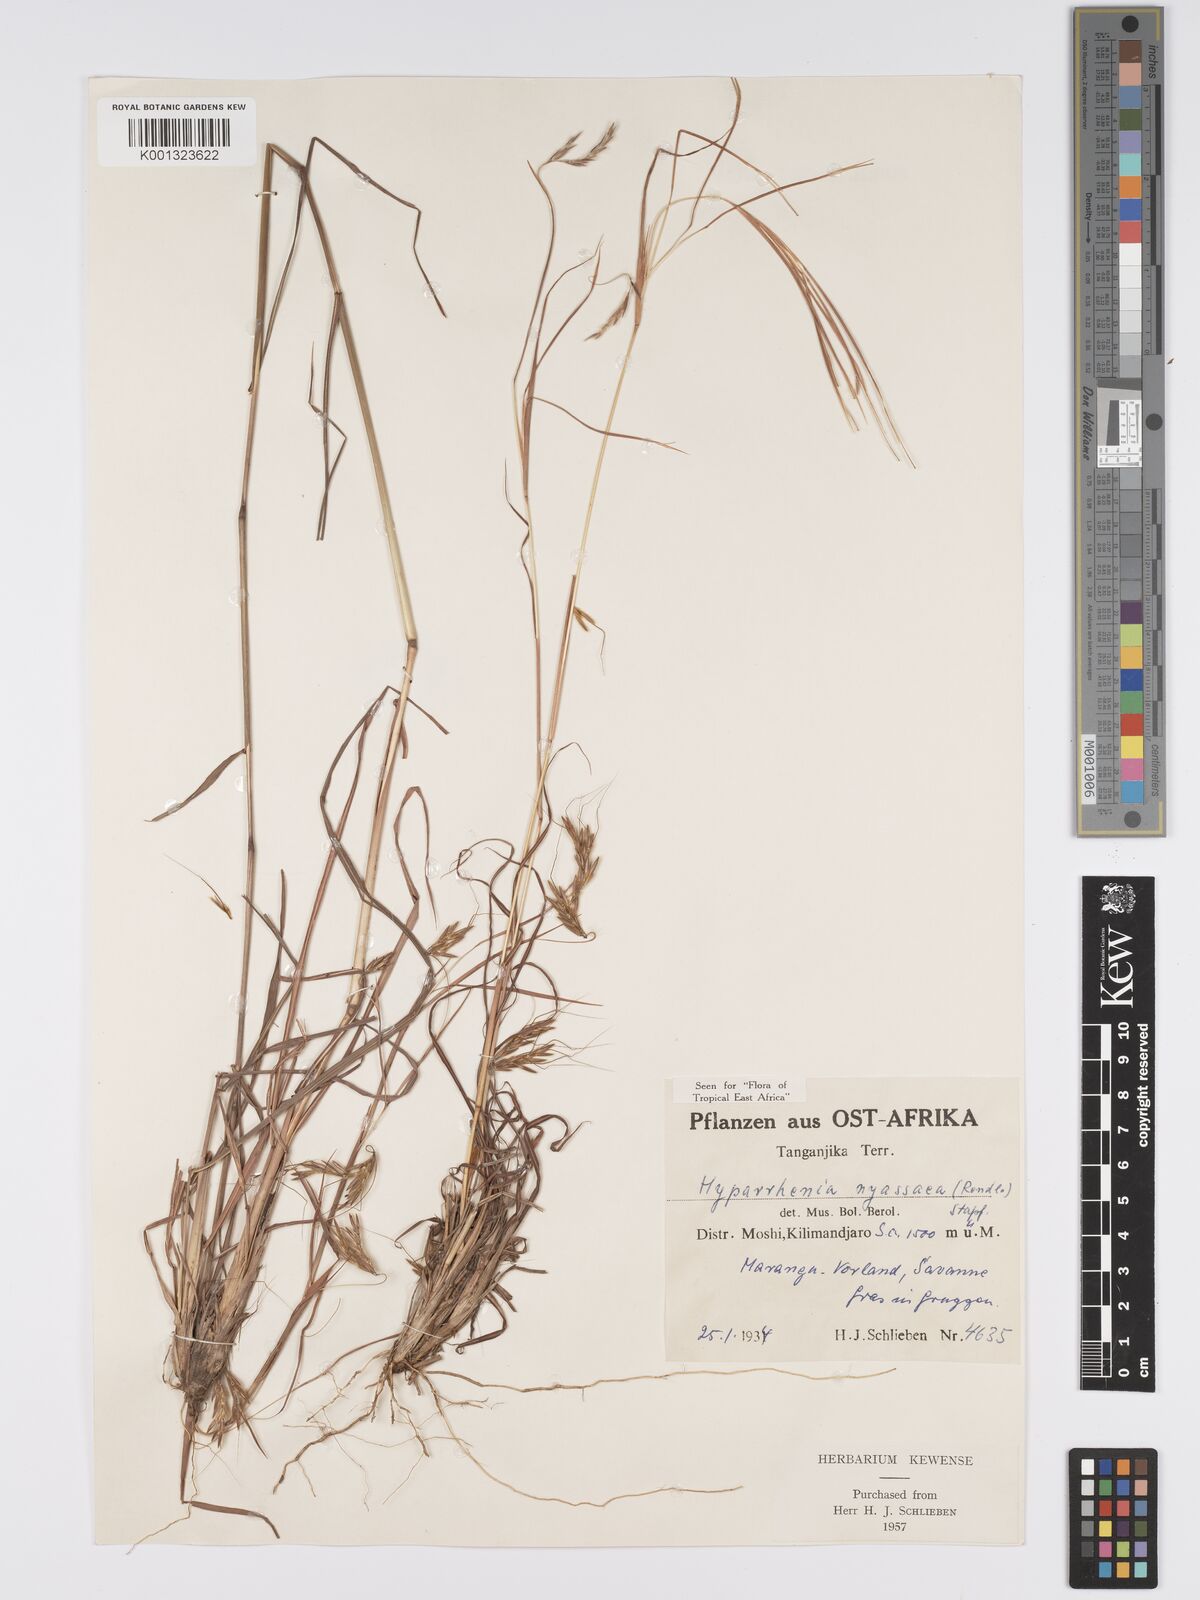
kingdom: Plantae
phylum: Tracheophyta
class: Liliopsida
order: Poales
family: Poaceae
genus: Hyparrhenia
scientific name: Hyparrhenia nyassae
